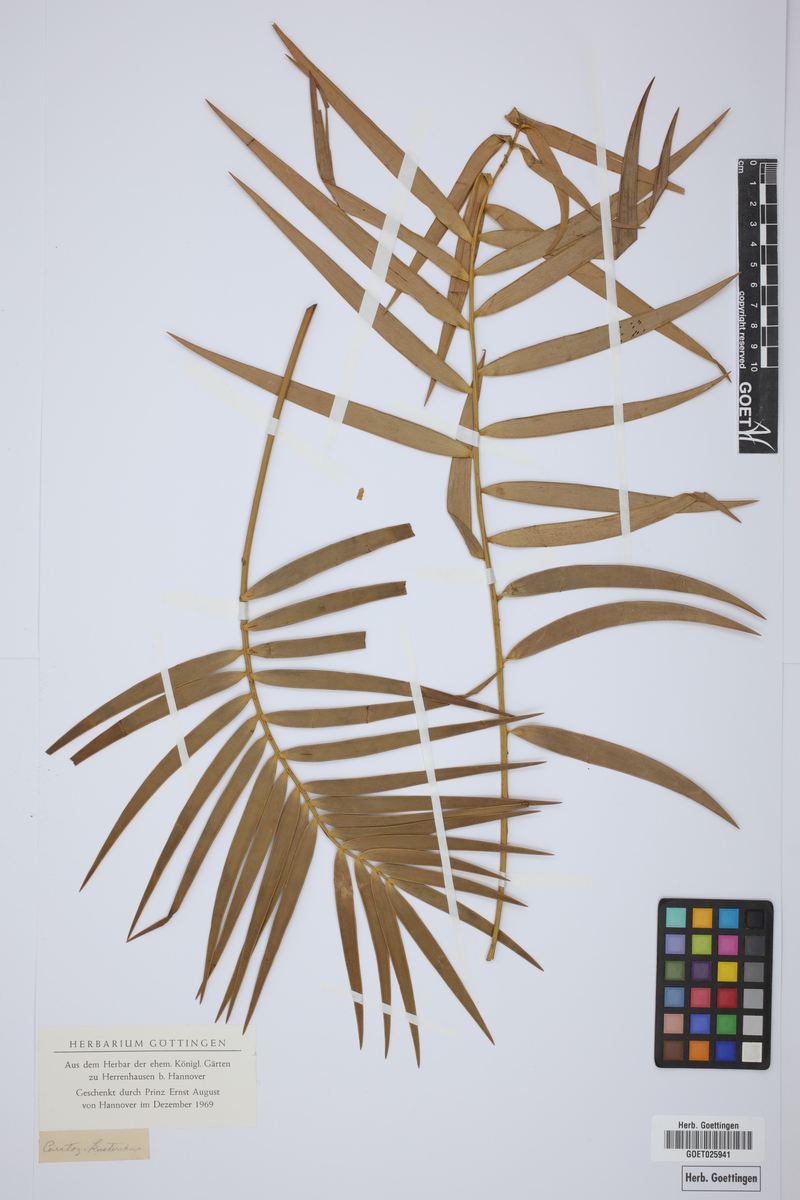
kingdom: Plantae
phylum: Tracheophyta
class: Cycadopsida
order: Cycadales
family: Zamiaceae
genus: Ceratozamia
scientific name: Ceratozamia kuesteriana
